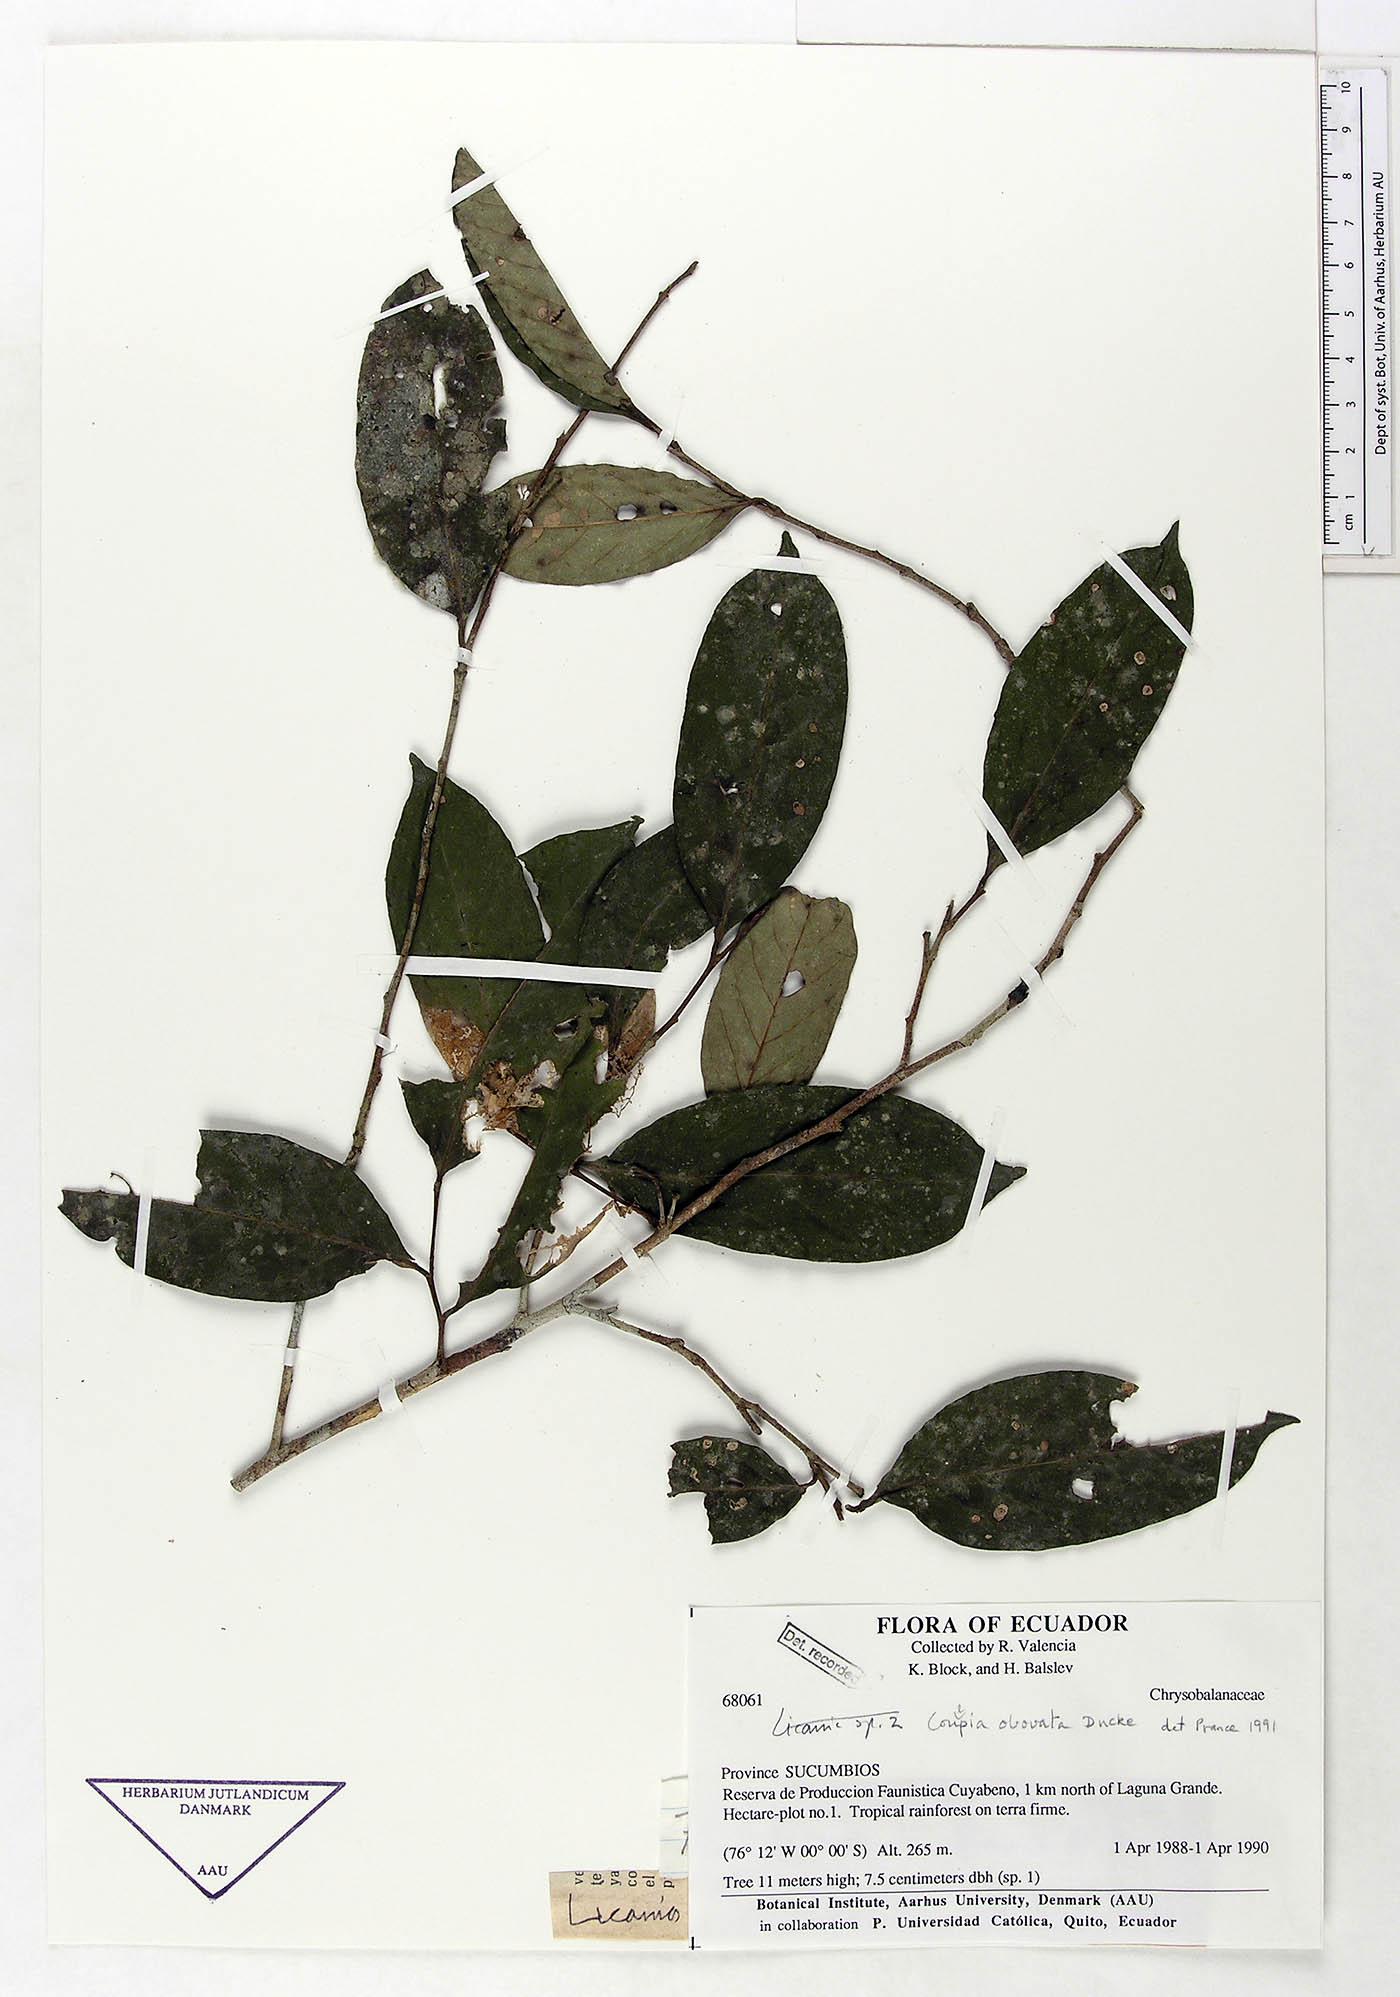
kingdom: Plantae
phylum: Tracheophyta
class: Magnoliopsida
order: Malpighiales
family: Chrysobalanaceae
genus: Couepia
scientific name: Couepia obovata
